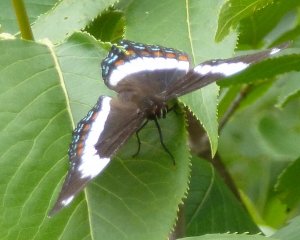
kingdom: Animalia
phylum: Arthropoda
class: Insecta
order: Lepidoptera
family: Nymphalidae
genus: Limenitis
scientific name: Limenitis arthemis
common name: Red-spotted Admiral
